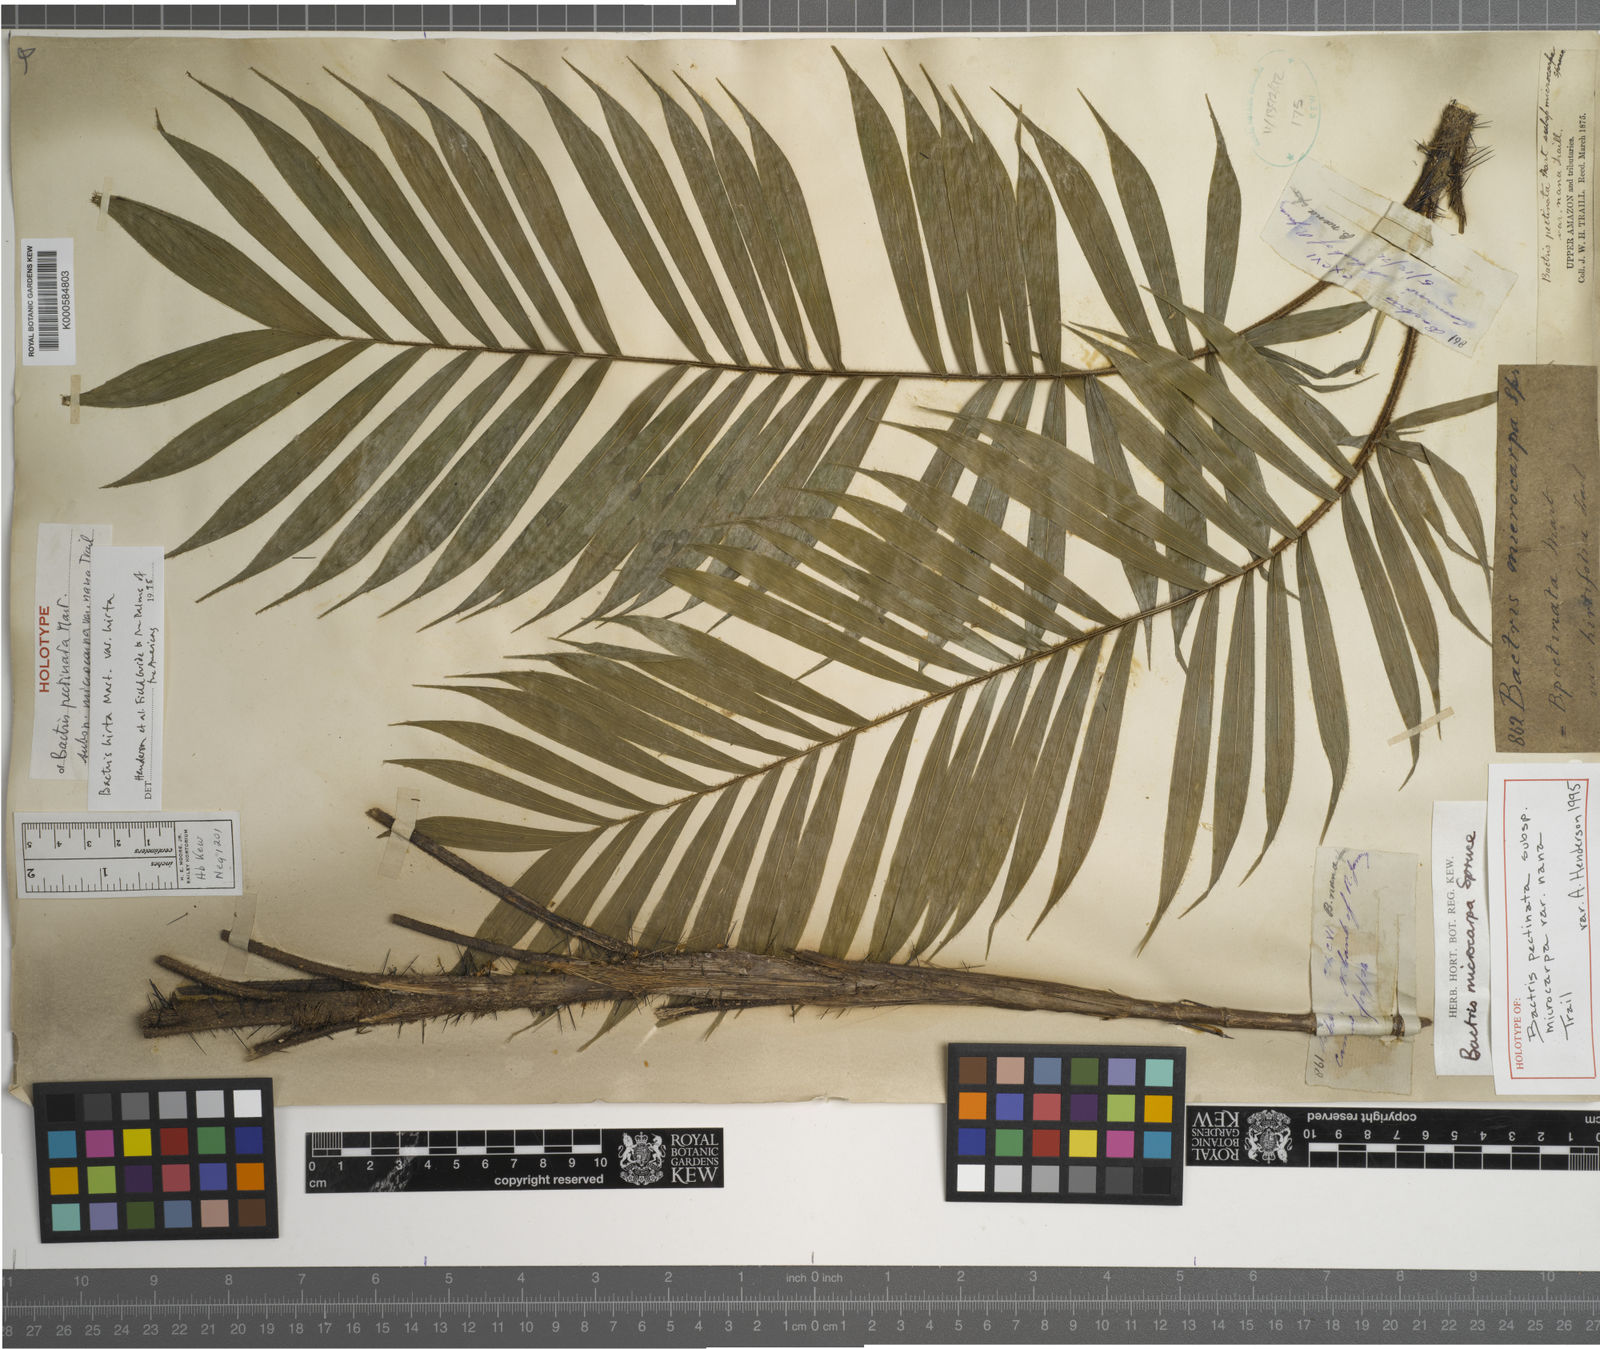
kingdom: Plantae
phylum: Tracheophyta
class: Liliopsida
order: Arecales
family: Arecaceae
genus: Bactris
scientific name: Bactris hirta
